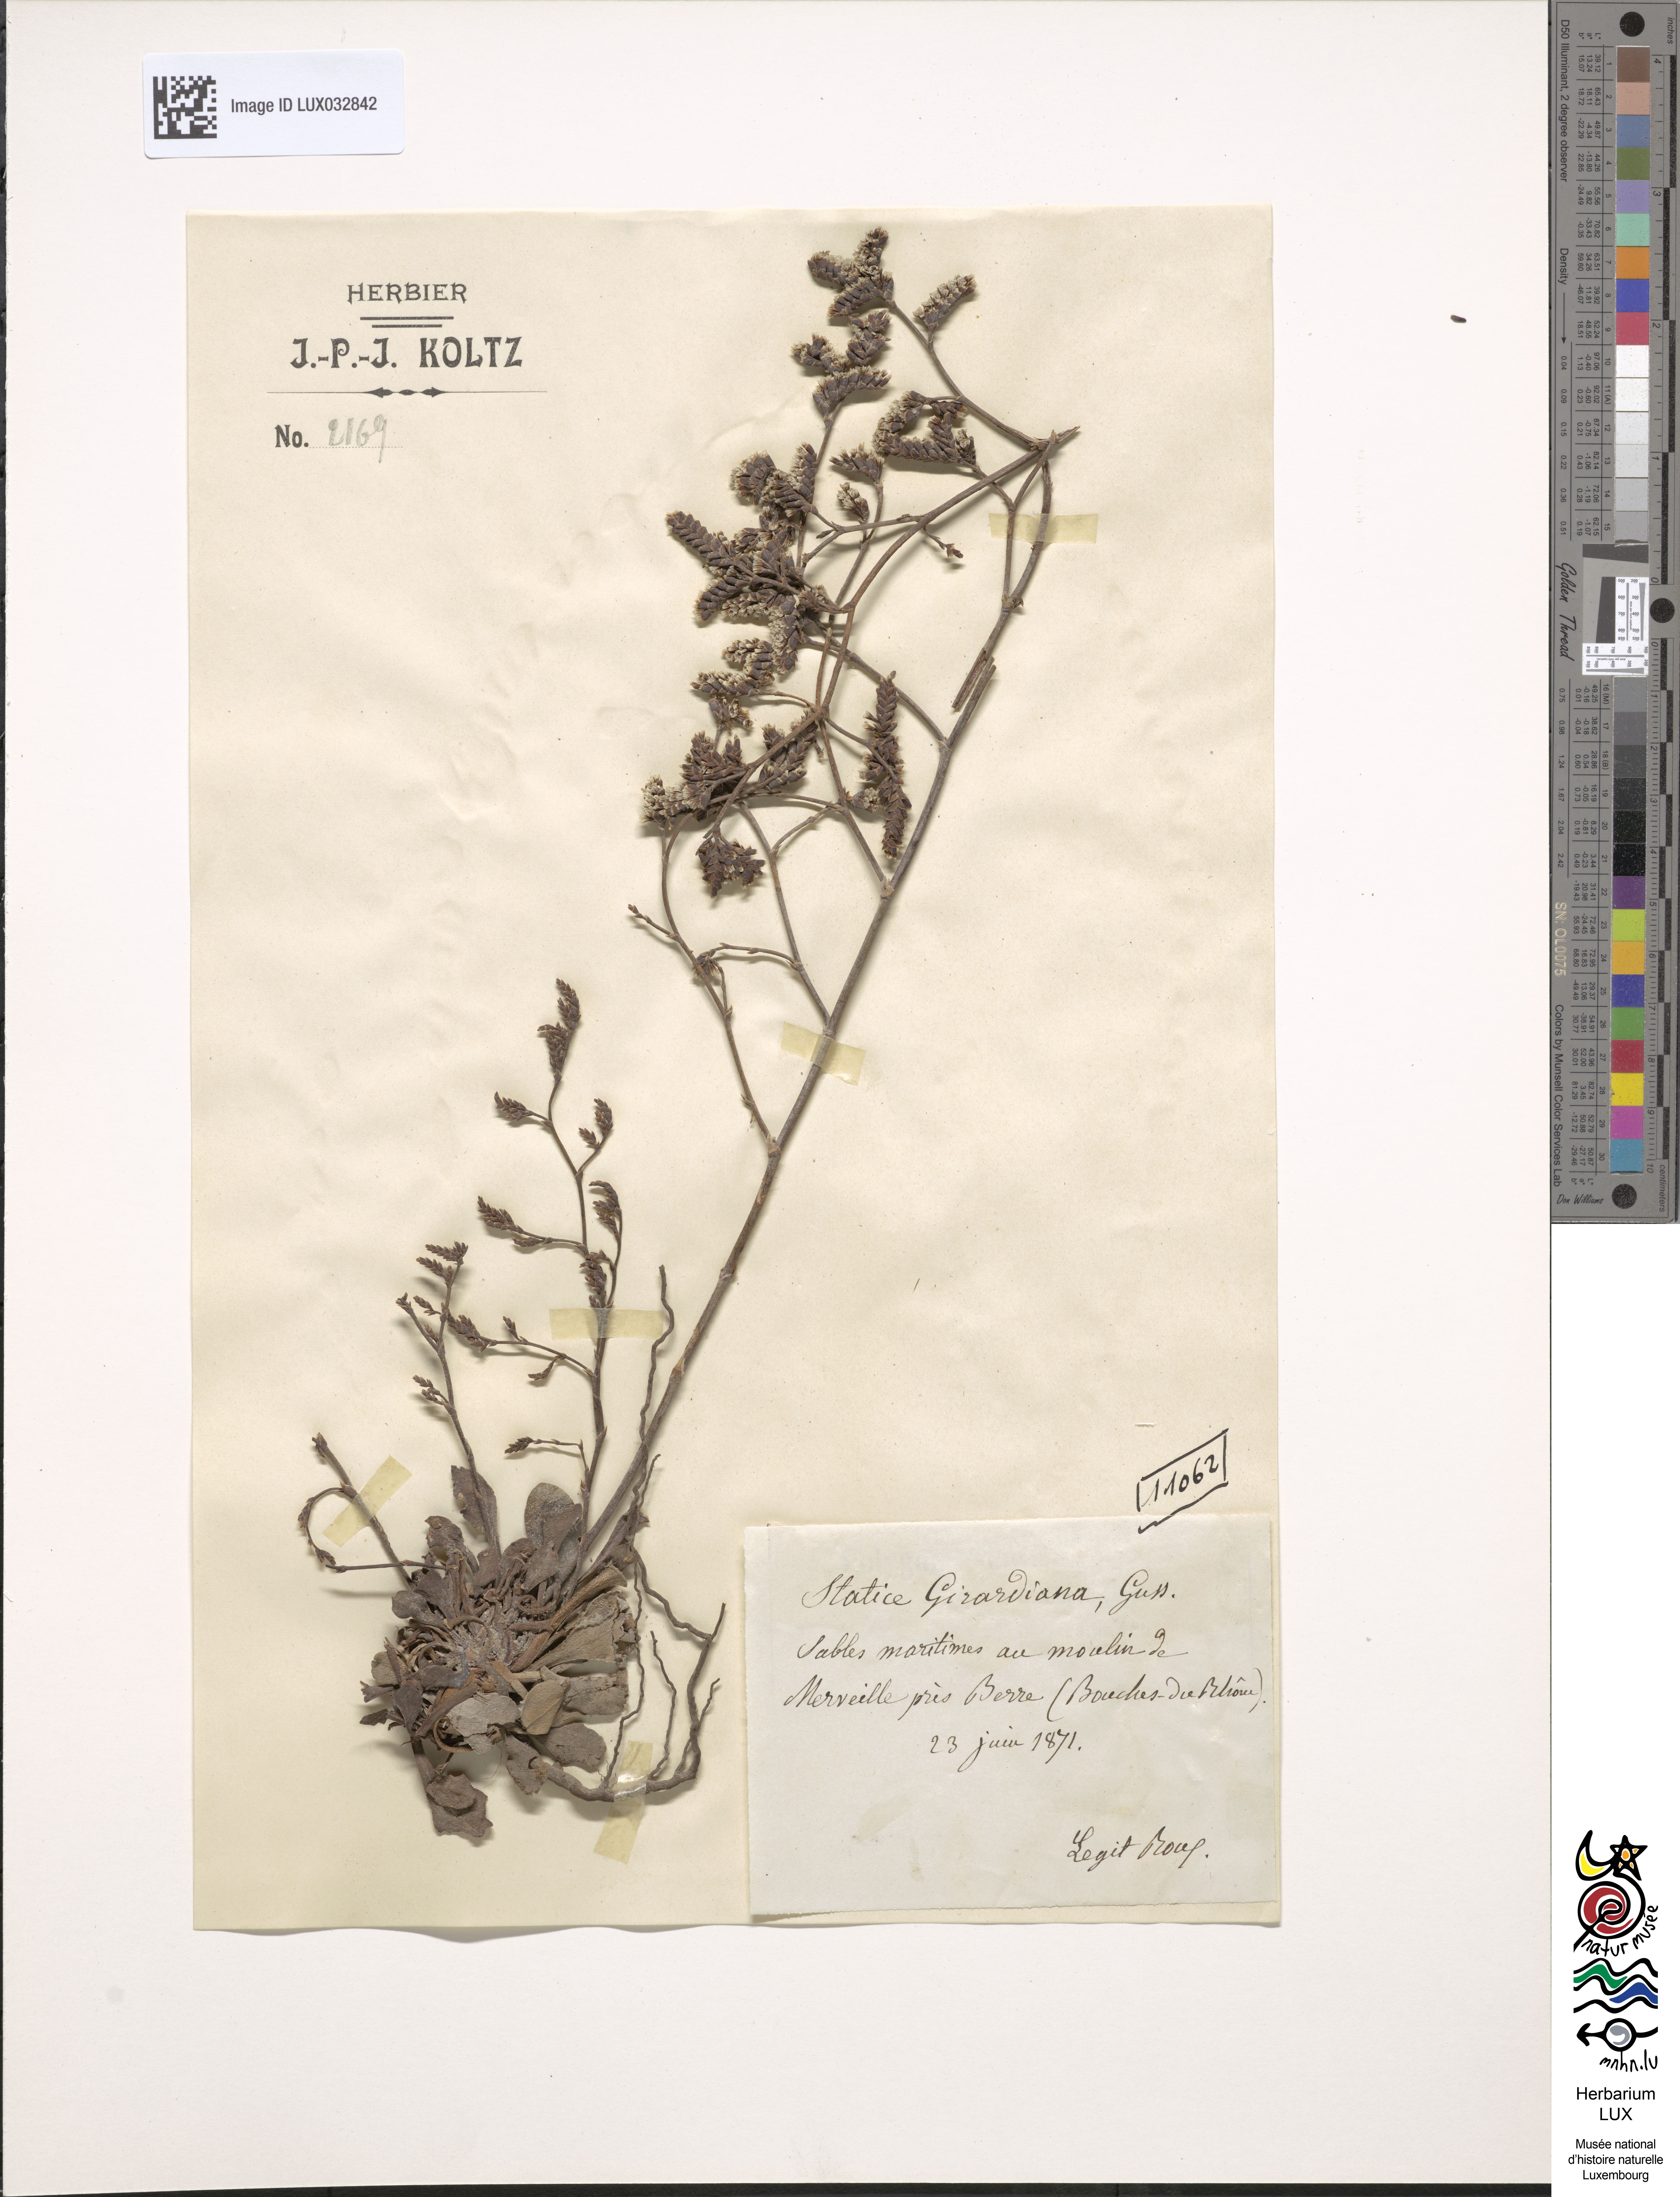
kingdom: Plantae
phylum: Tracheophyta
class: Magnoliopsida
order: Caryophyllales
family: Plumbaginaceae
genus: Limonium
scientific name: Limonium girardianum
